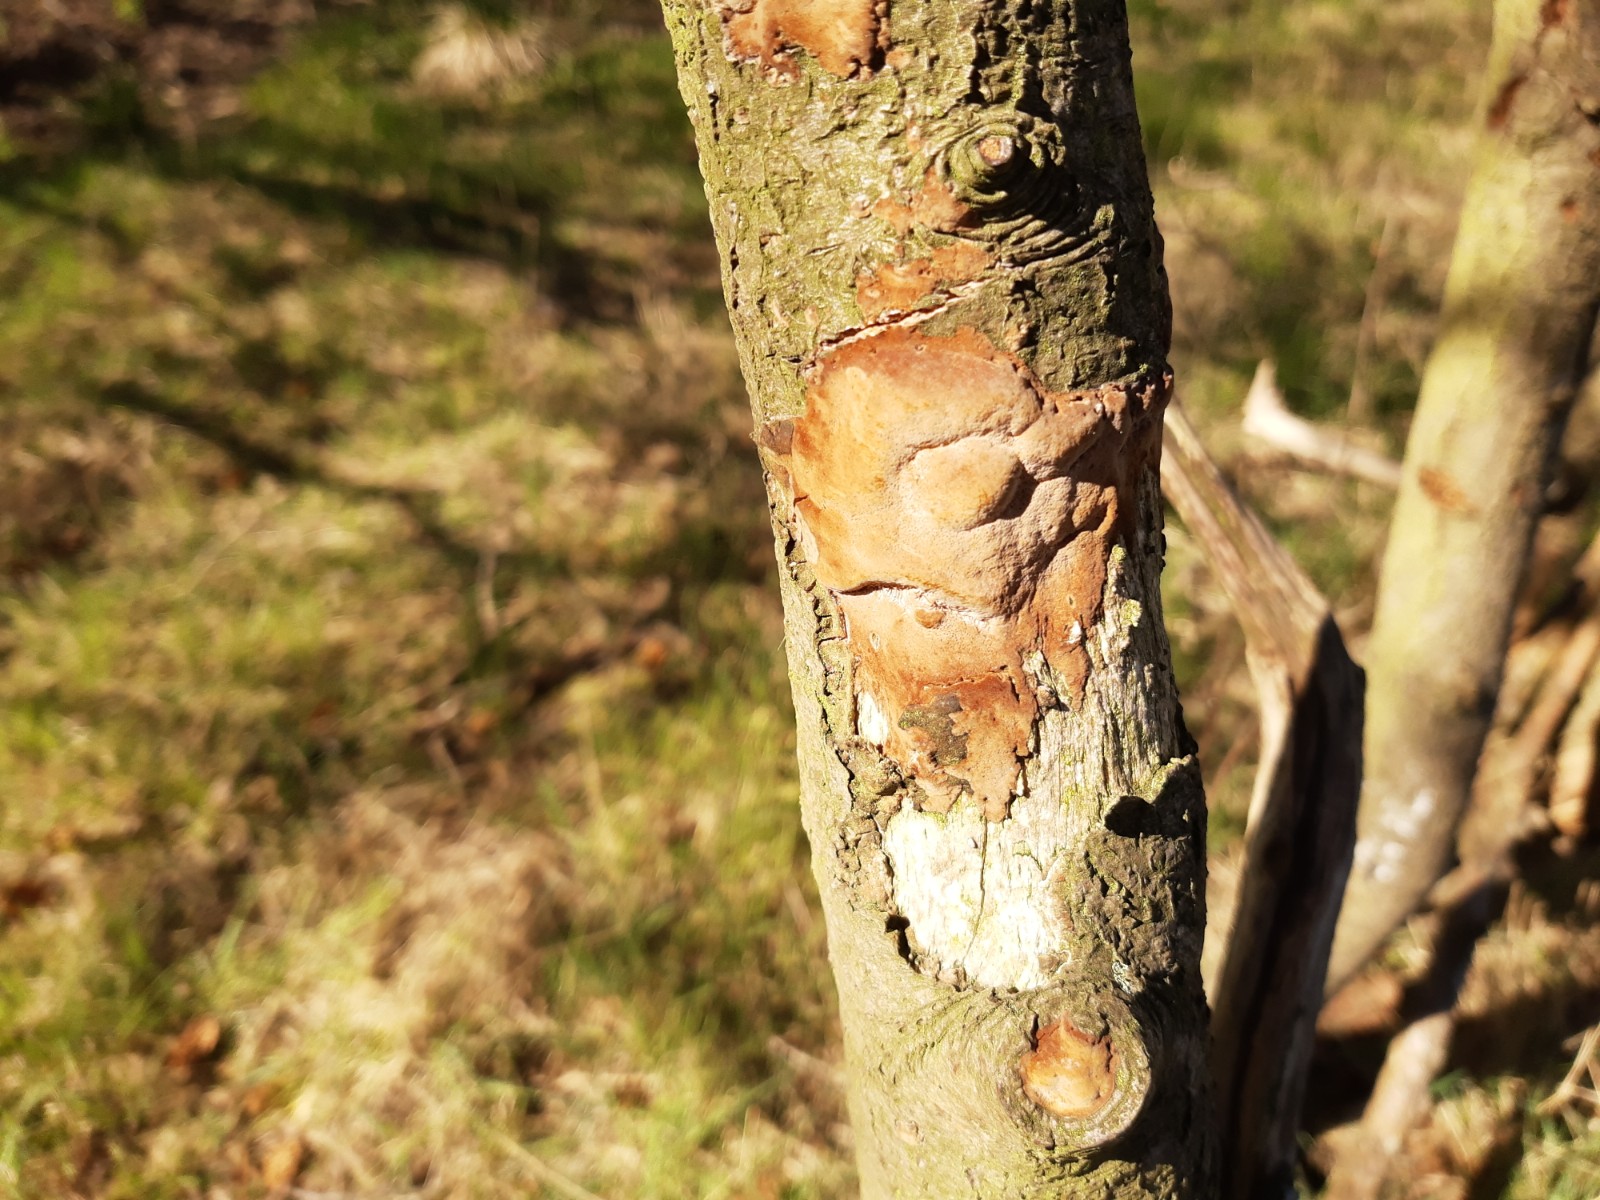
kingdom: Fungi
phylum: Basidiomycota
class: Agaricomycetes
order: Hymenochaetales
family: Hymenochaetaceae
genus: Phellinus
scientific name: Phellinus pomaceus
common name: blomme-ildporesvamp
